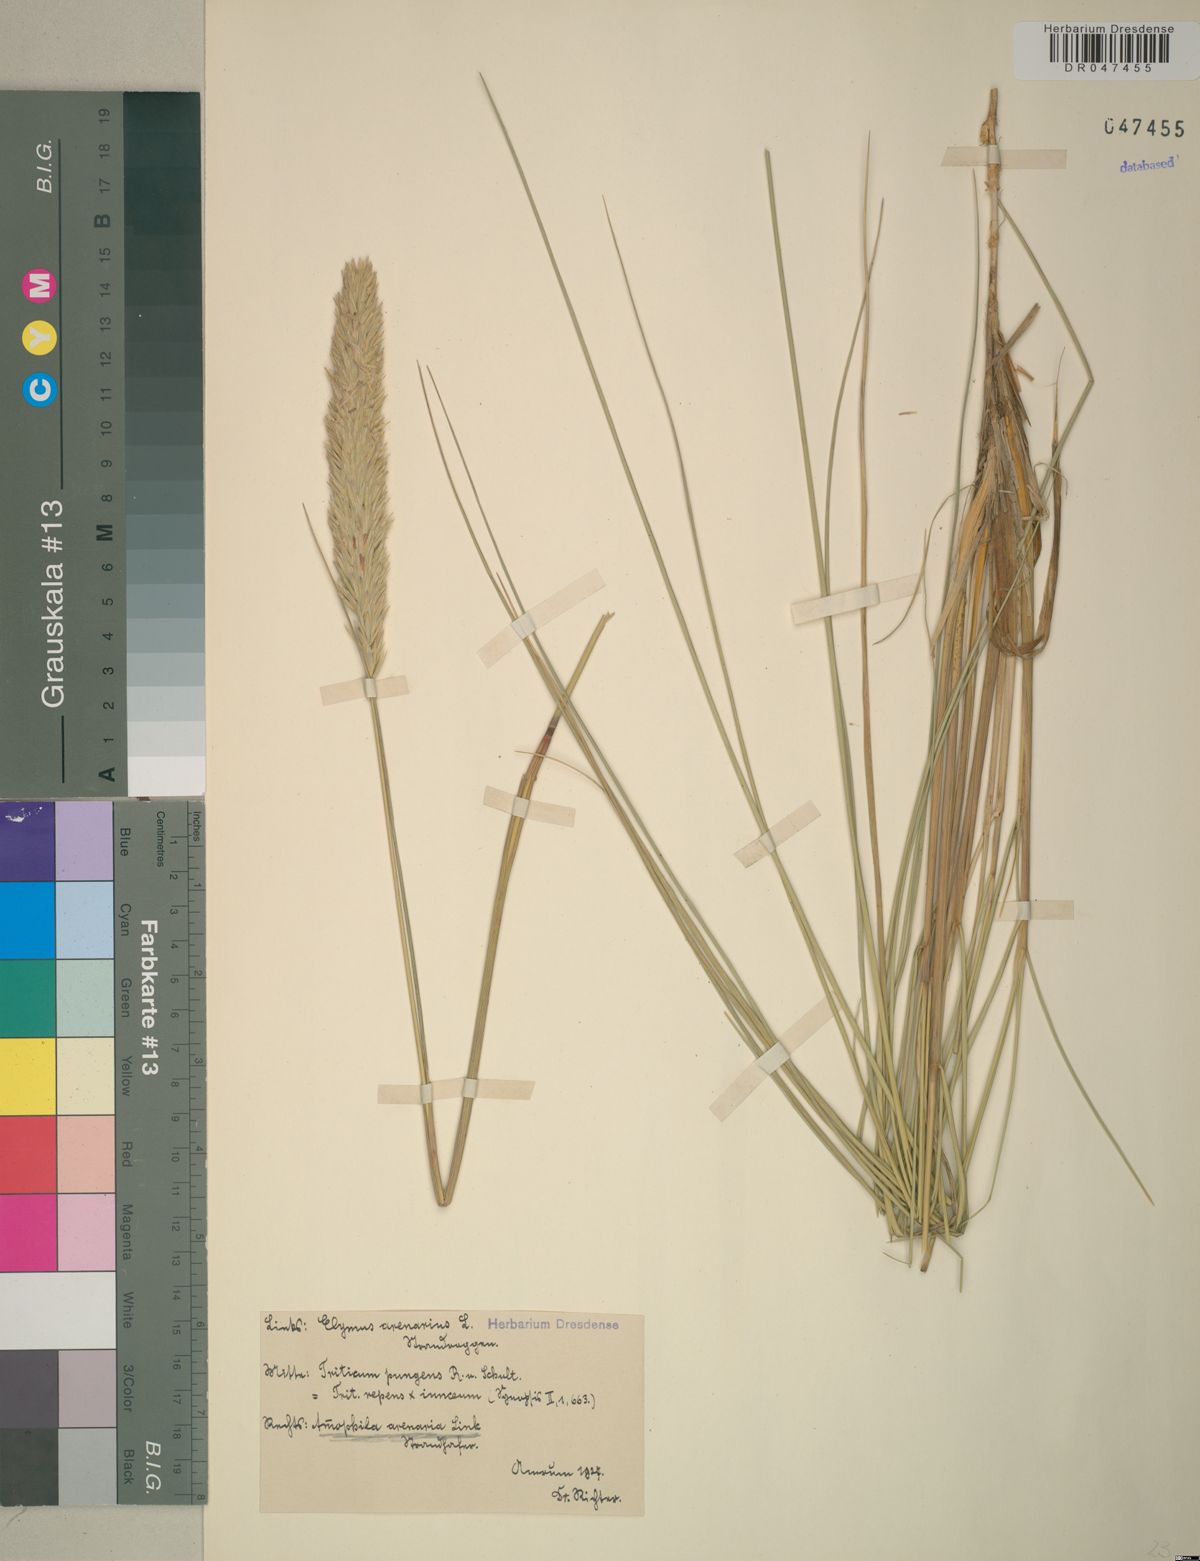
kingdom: Plantae
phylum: Tracheophyta
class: Liliopsida
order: Poales
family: Poaceae
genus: Calamagrostis
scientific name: Calamagrostis arenaria
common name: European beachgrass
